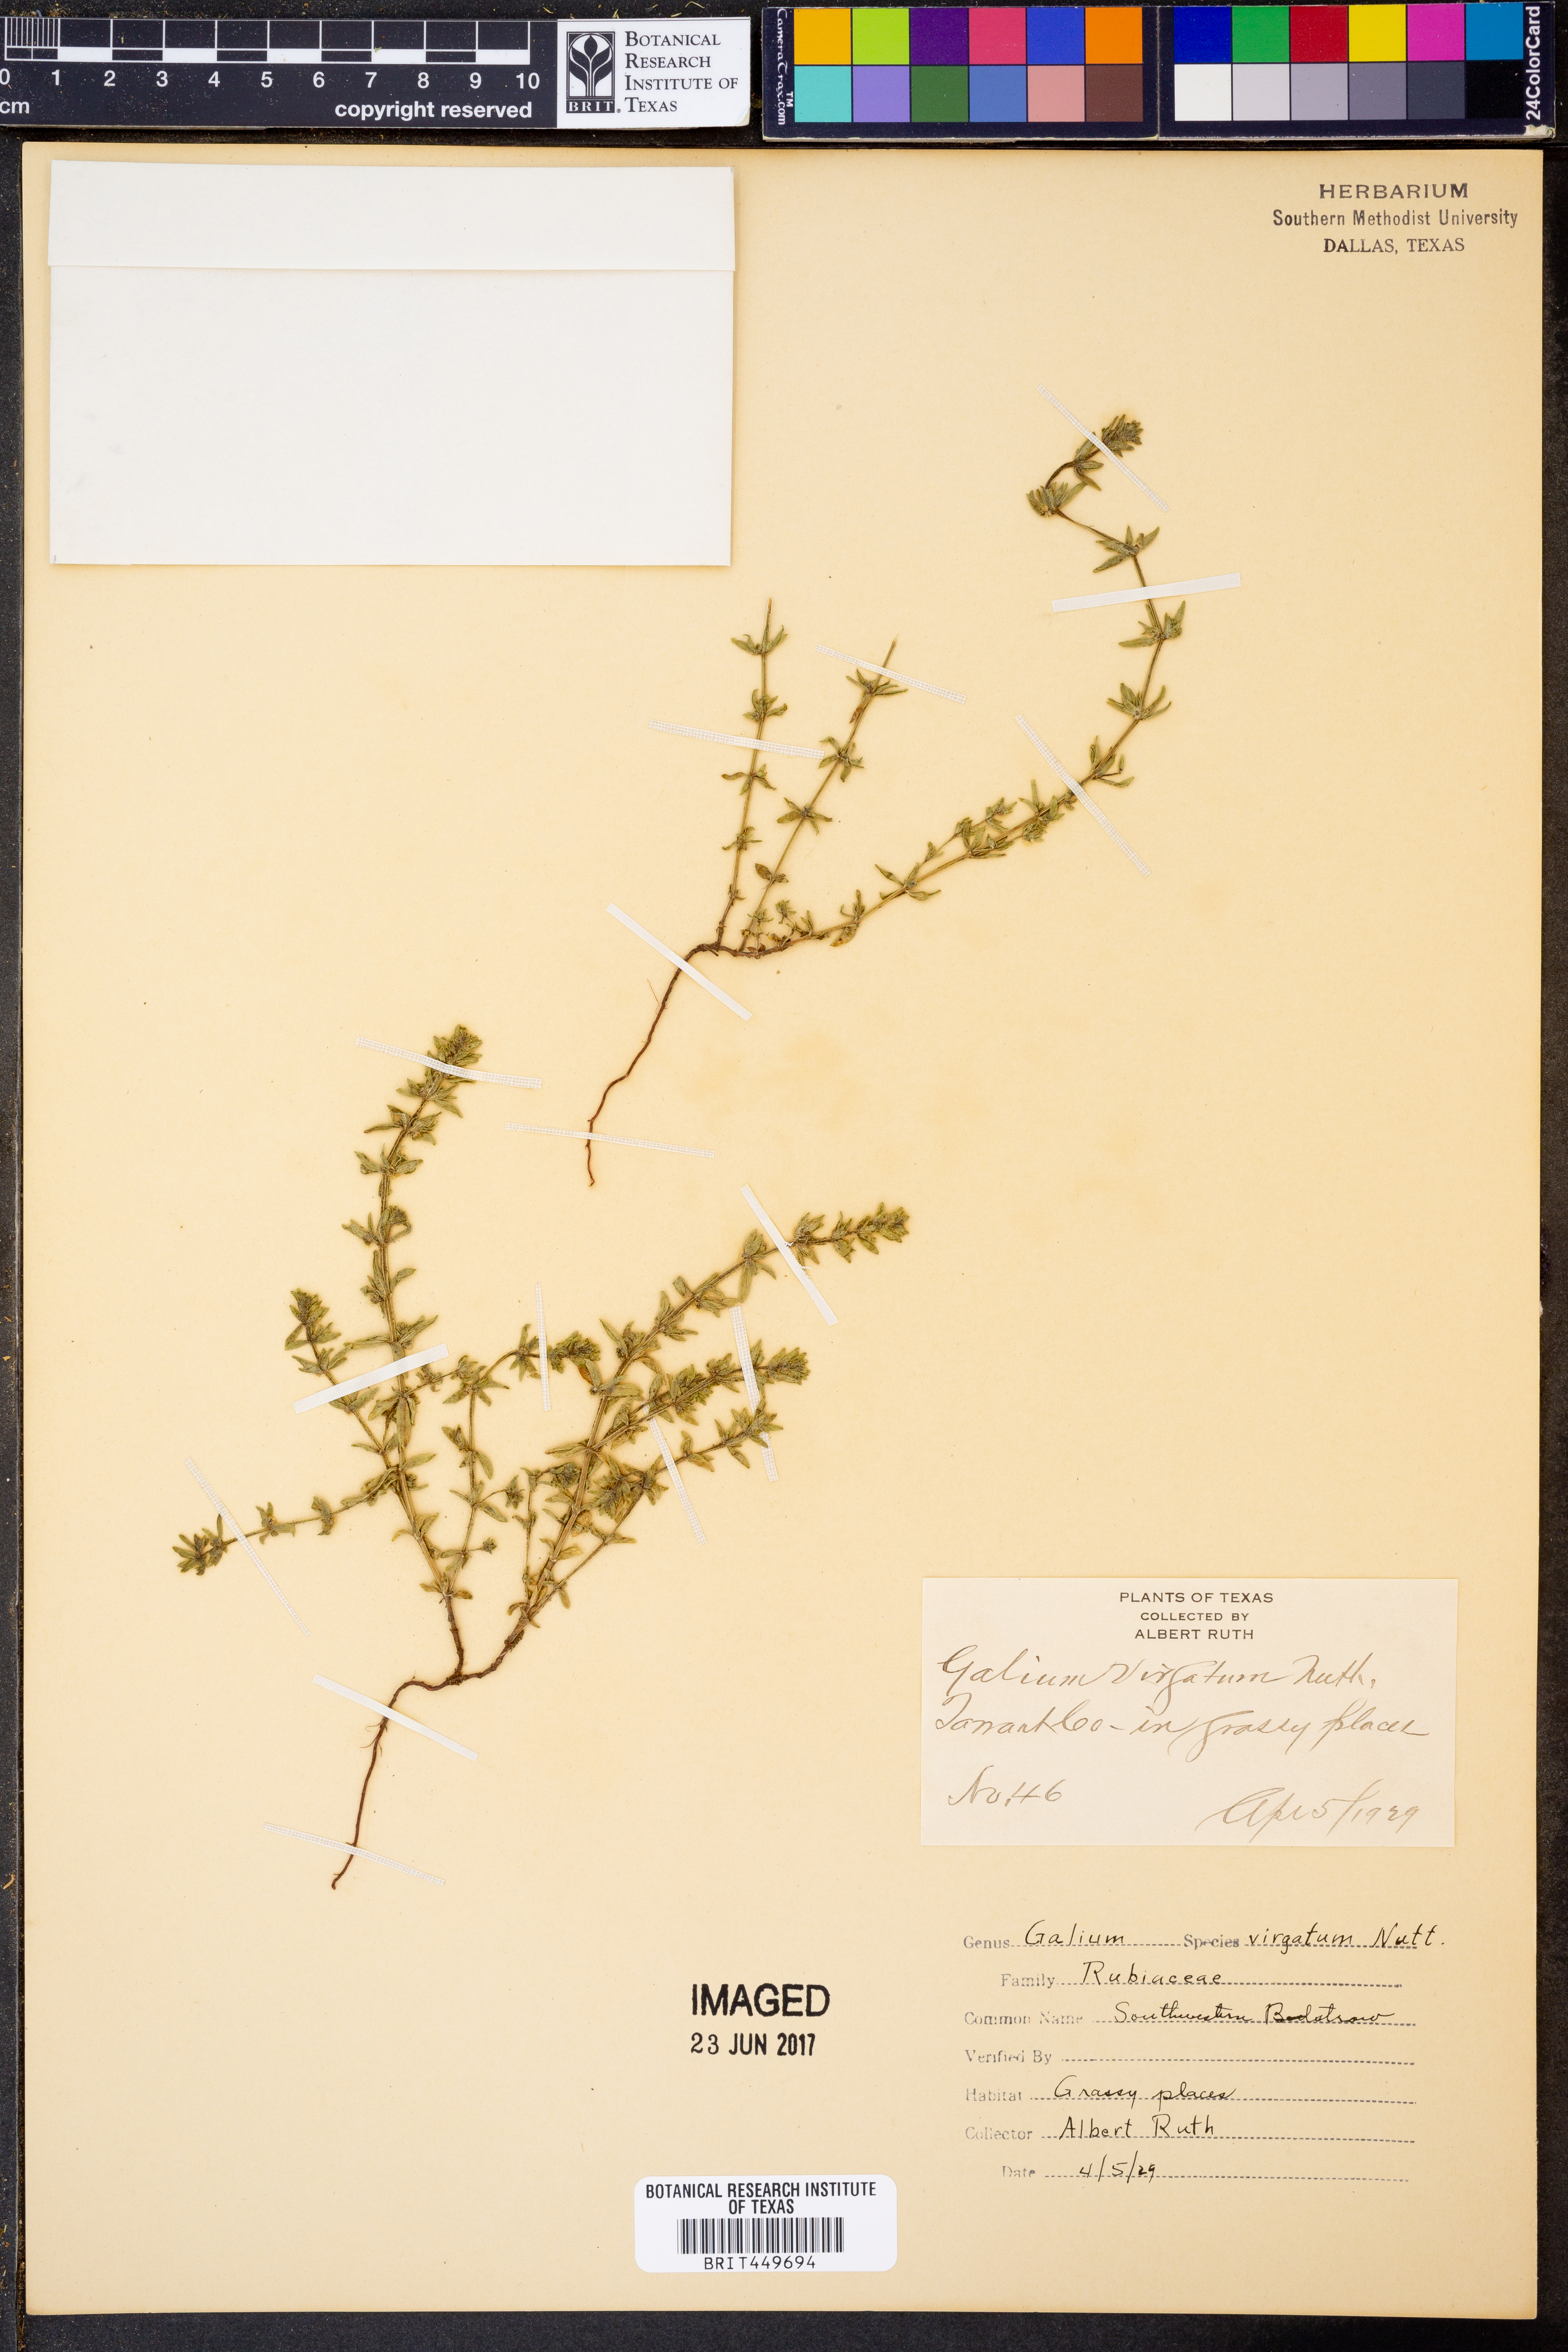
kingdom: Plantae
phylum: Tracheophyta
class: Magnoliopsida
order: Gentianales
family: Rubiaceae
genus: Galium
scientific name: Galium virgatum
